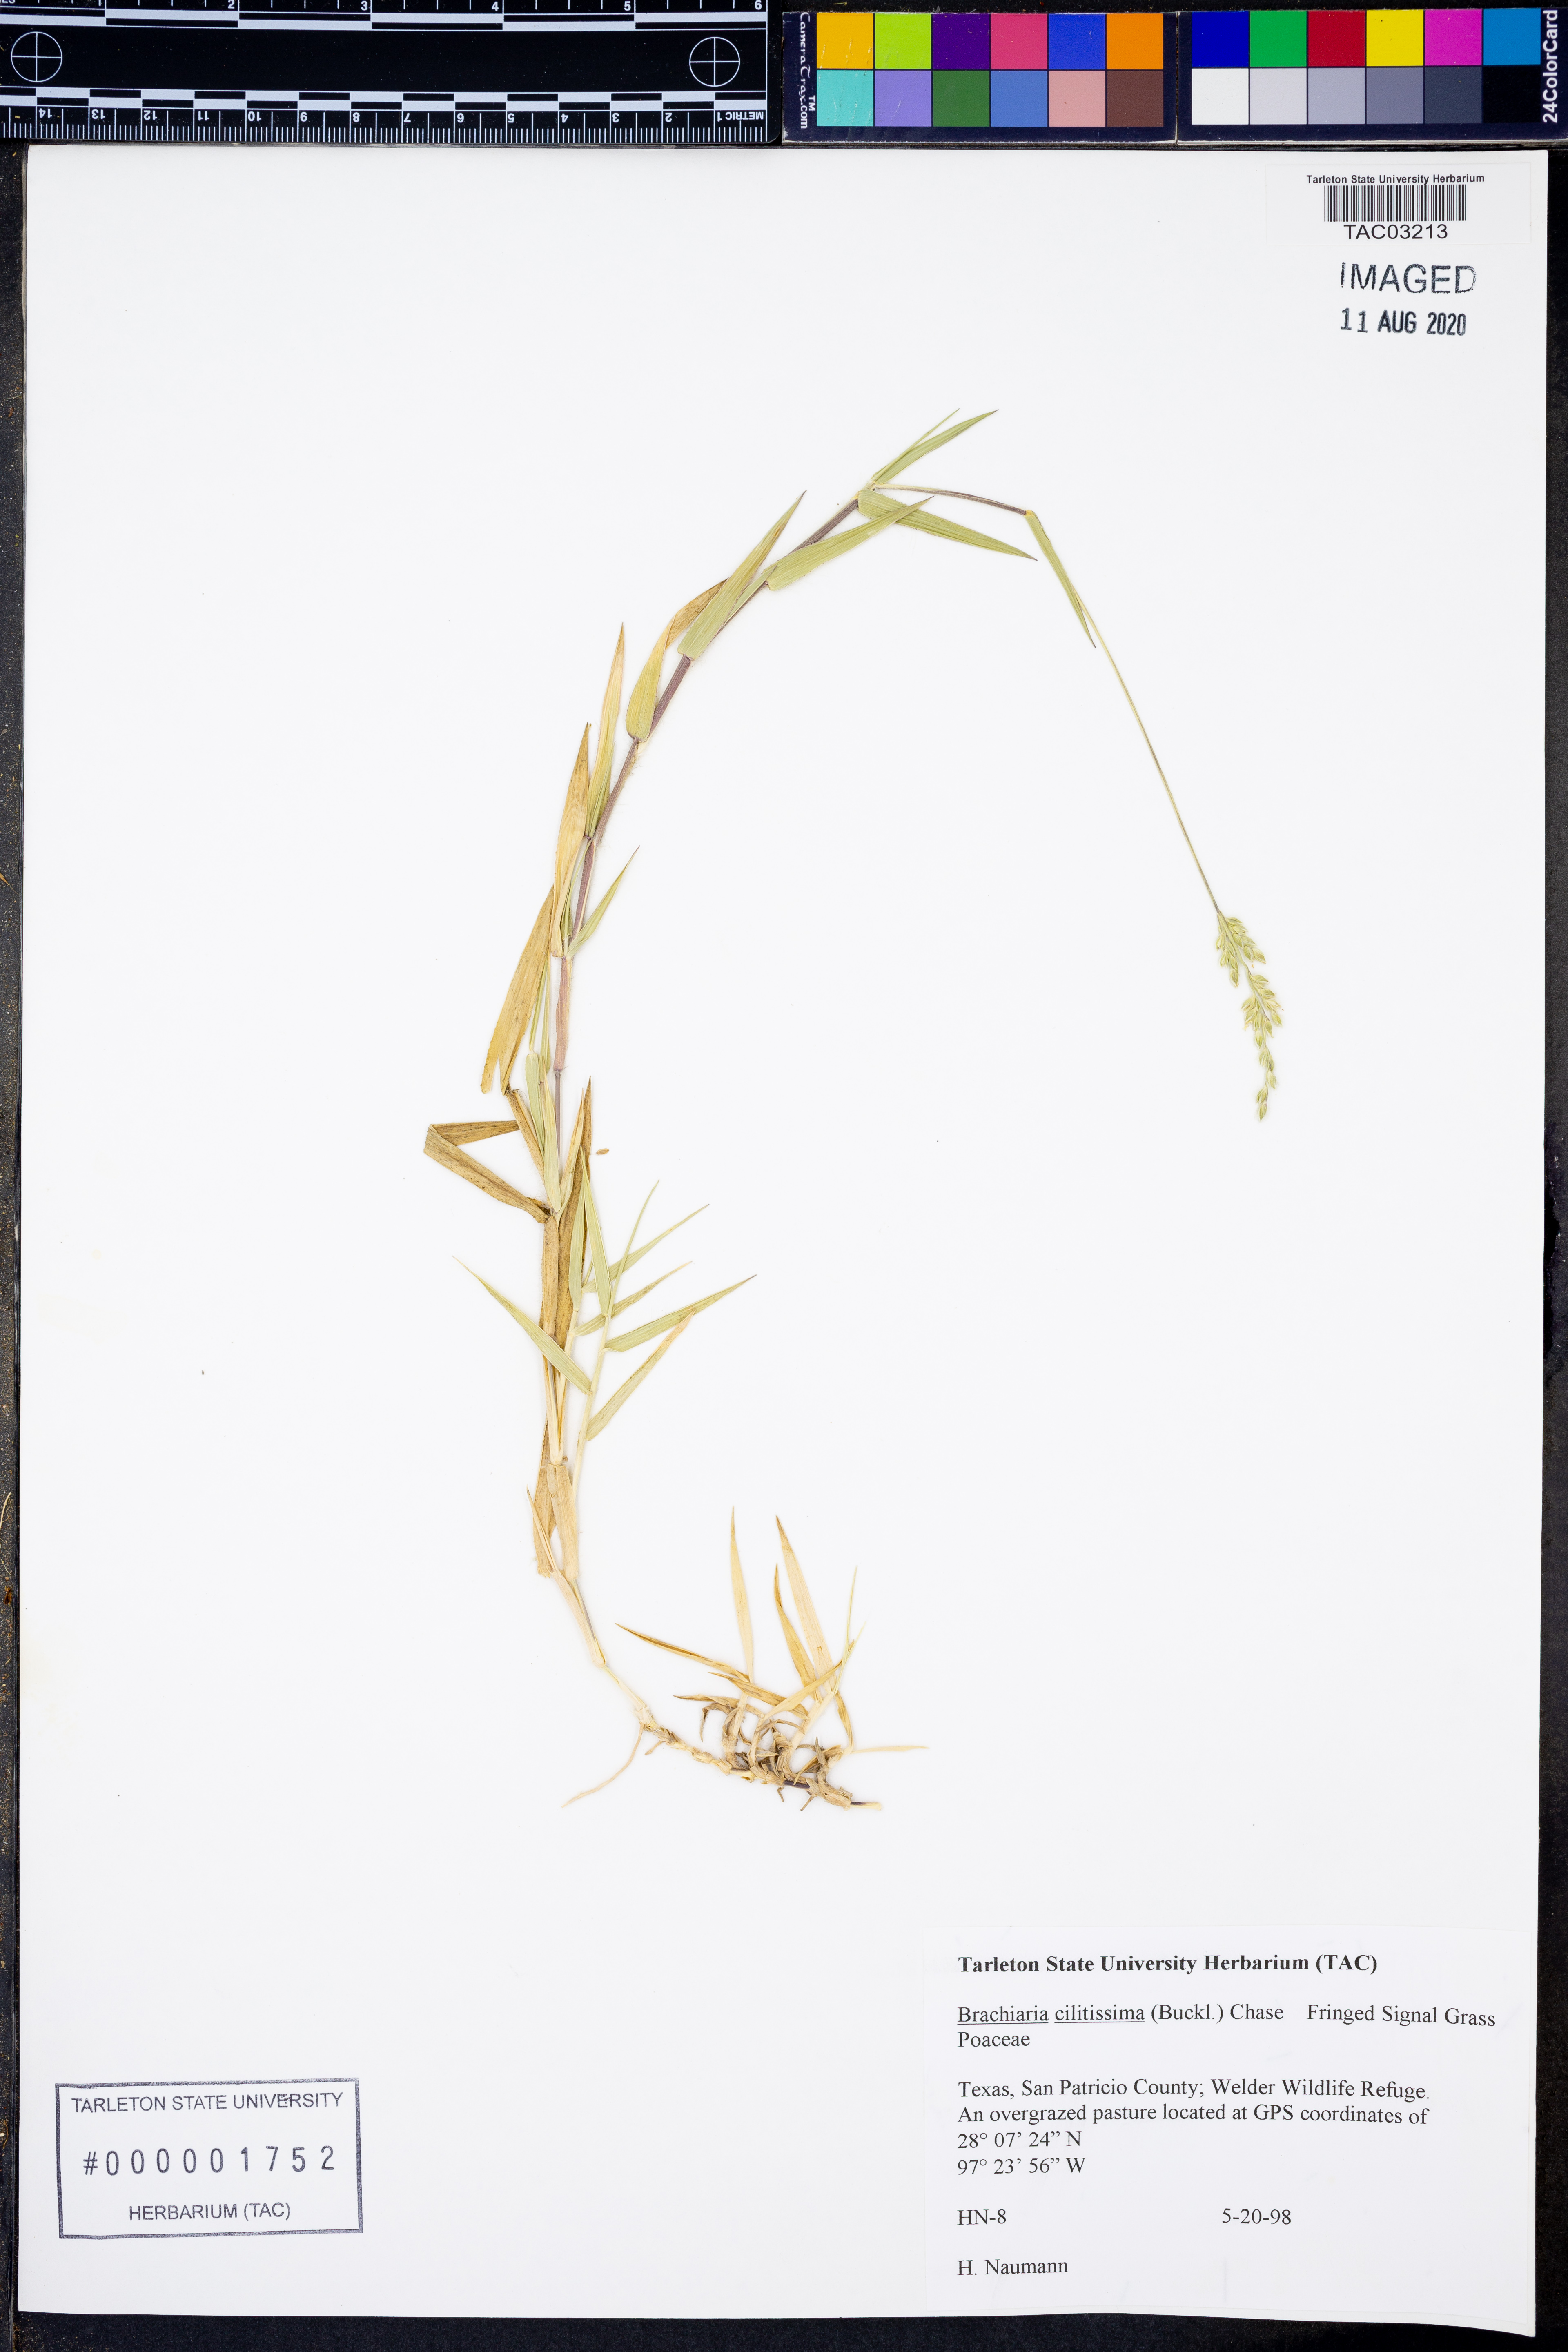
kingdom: Plantae
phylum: Tracheophyta
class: Liliopsida
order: Poales
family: Poaceae
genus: Urochloa
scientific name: Urochloa ciliatissima
